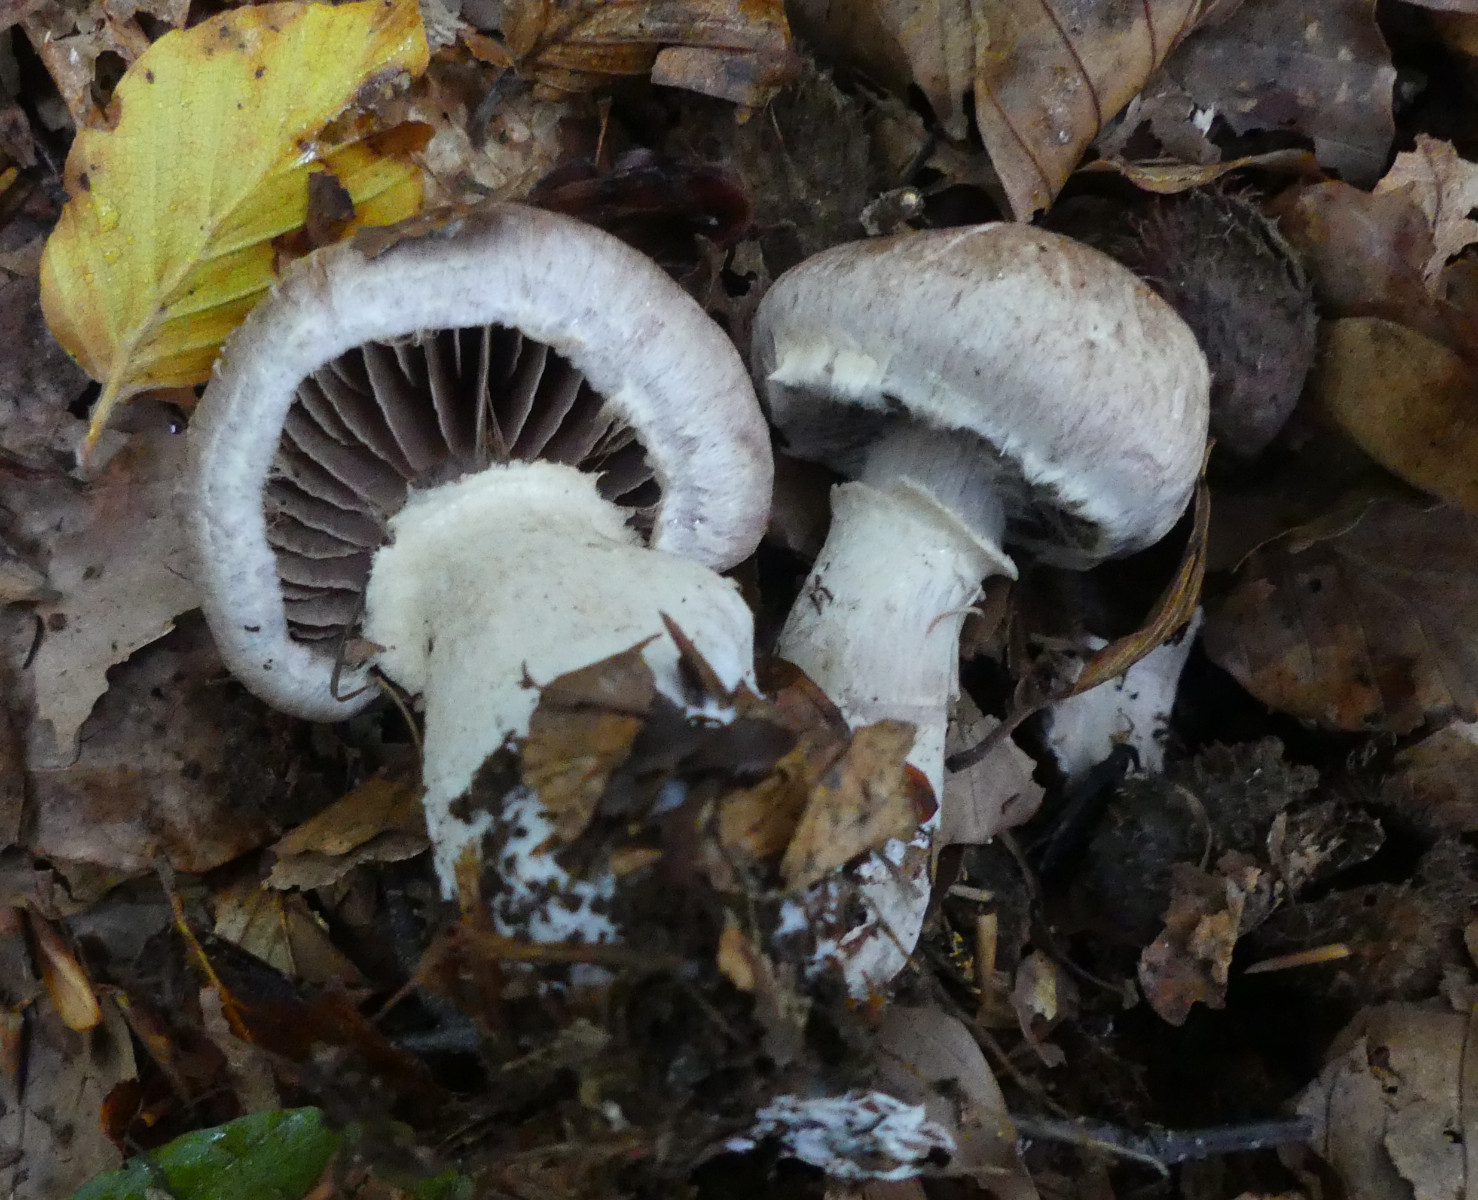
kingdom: Fungi
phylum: Basidiomycota
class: Agaricomycetes
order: Agaricales
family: Cortinariaceae
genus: Cortinarius
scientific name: Cortinarius torvus
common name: champignonagtig slørhat
